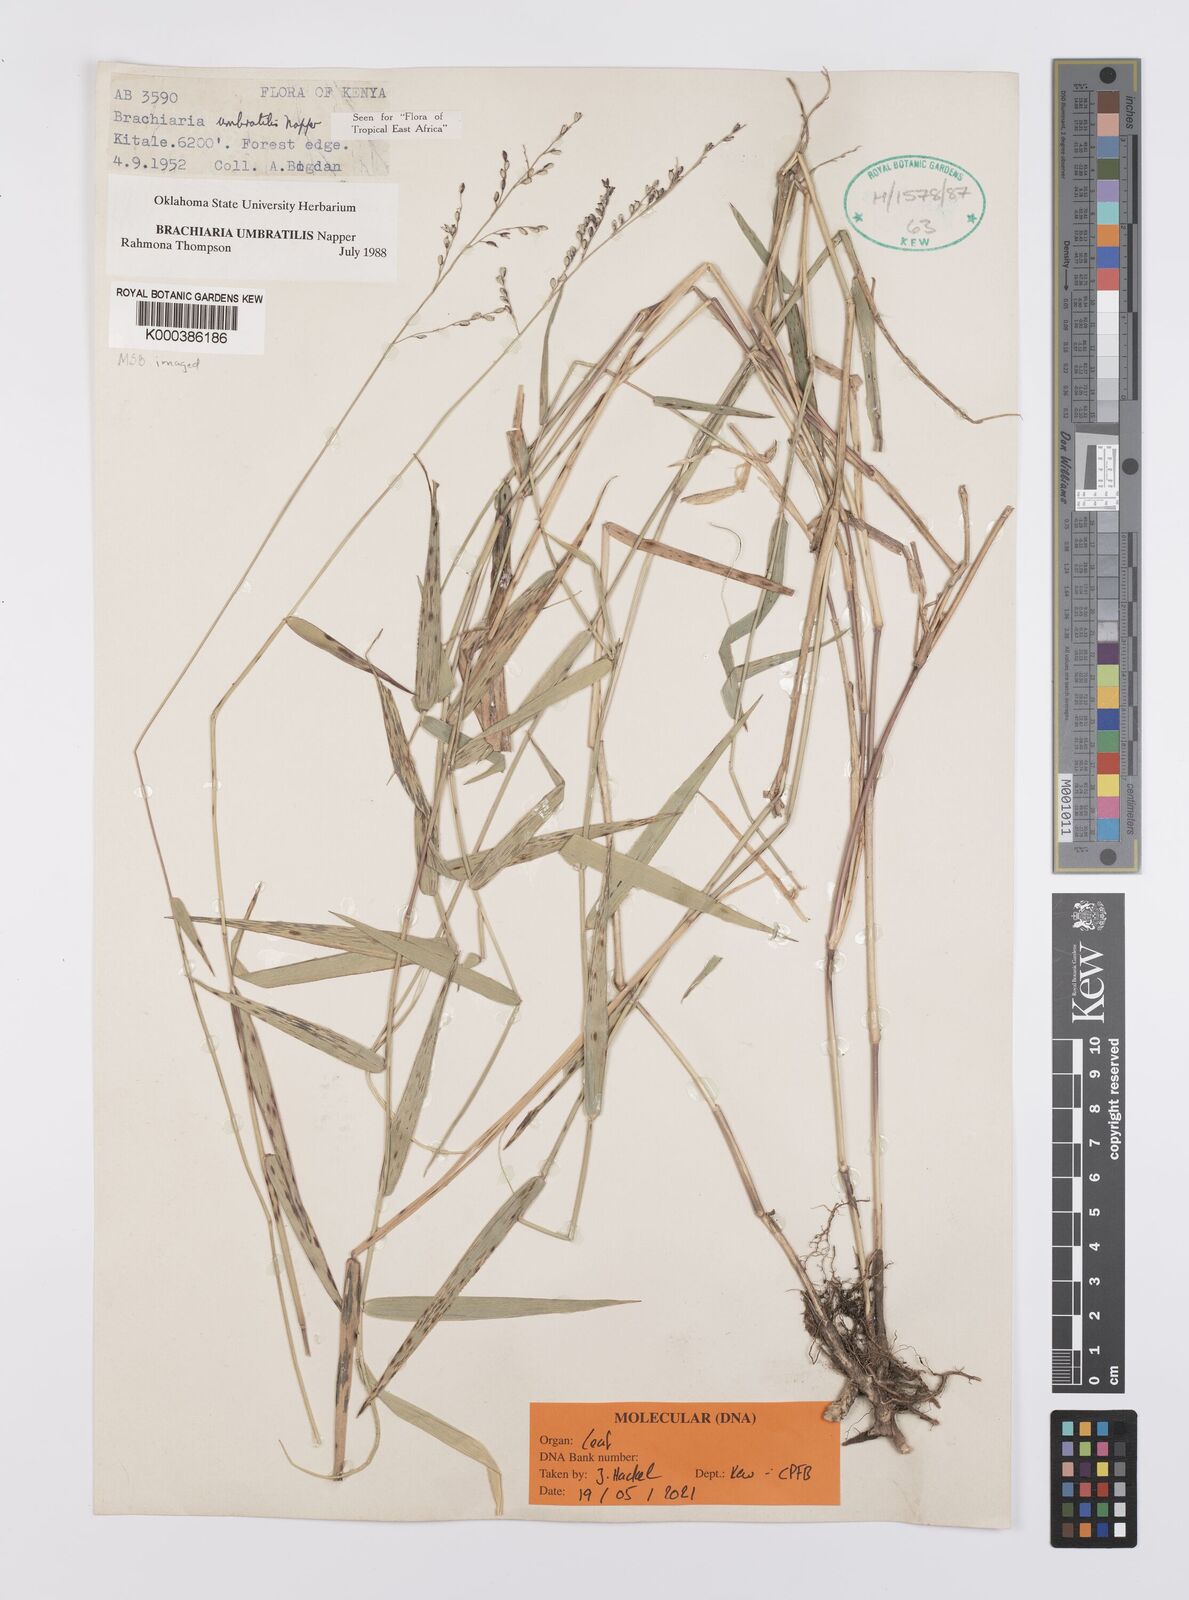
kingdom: Plantae
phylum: Tracheophyta
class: Liliopsida
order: Poales
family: Poaceae
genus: Urochloa
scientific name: Urochloa Brachiaria umbratilis
